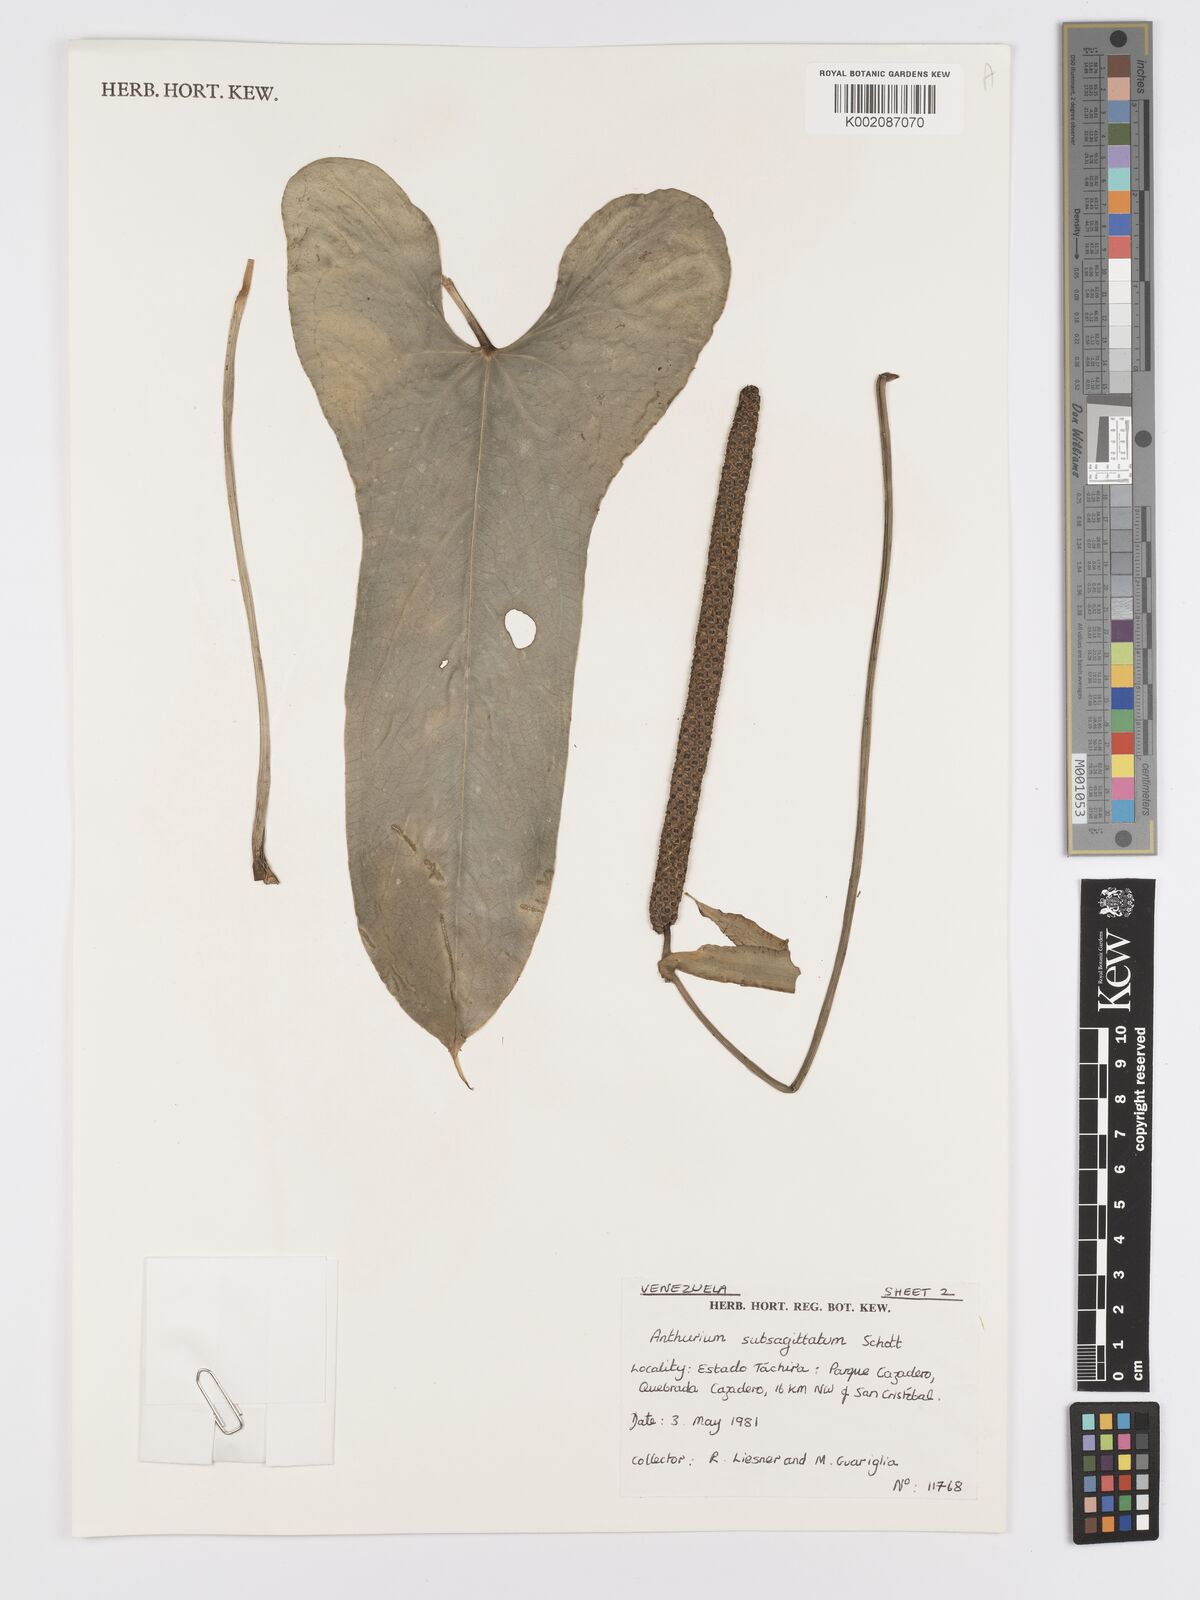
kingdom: Plantae
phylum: Tracheophyta
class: Liliopsida
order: Alismatales
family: Araceae
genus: Anthurium
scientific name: Anthurium subsagittatum
